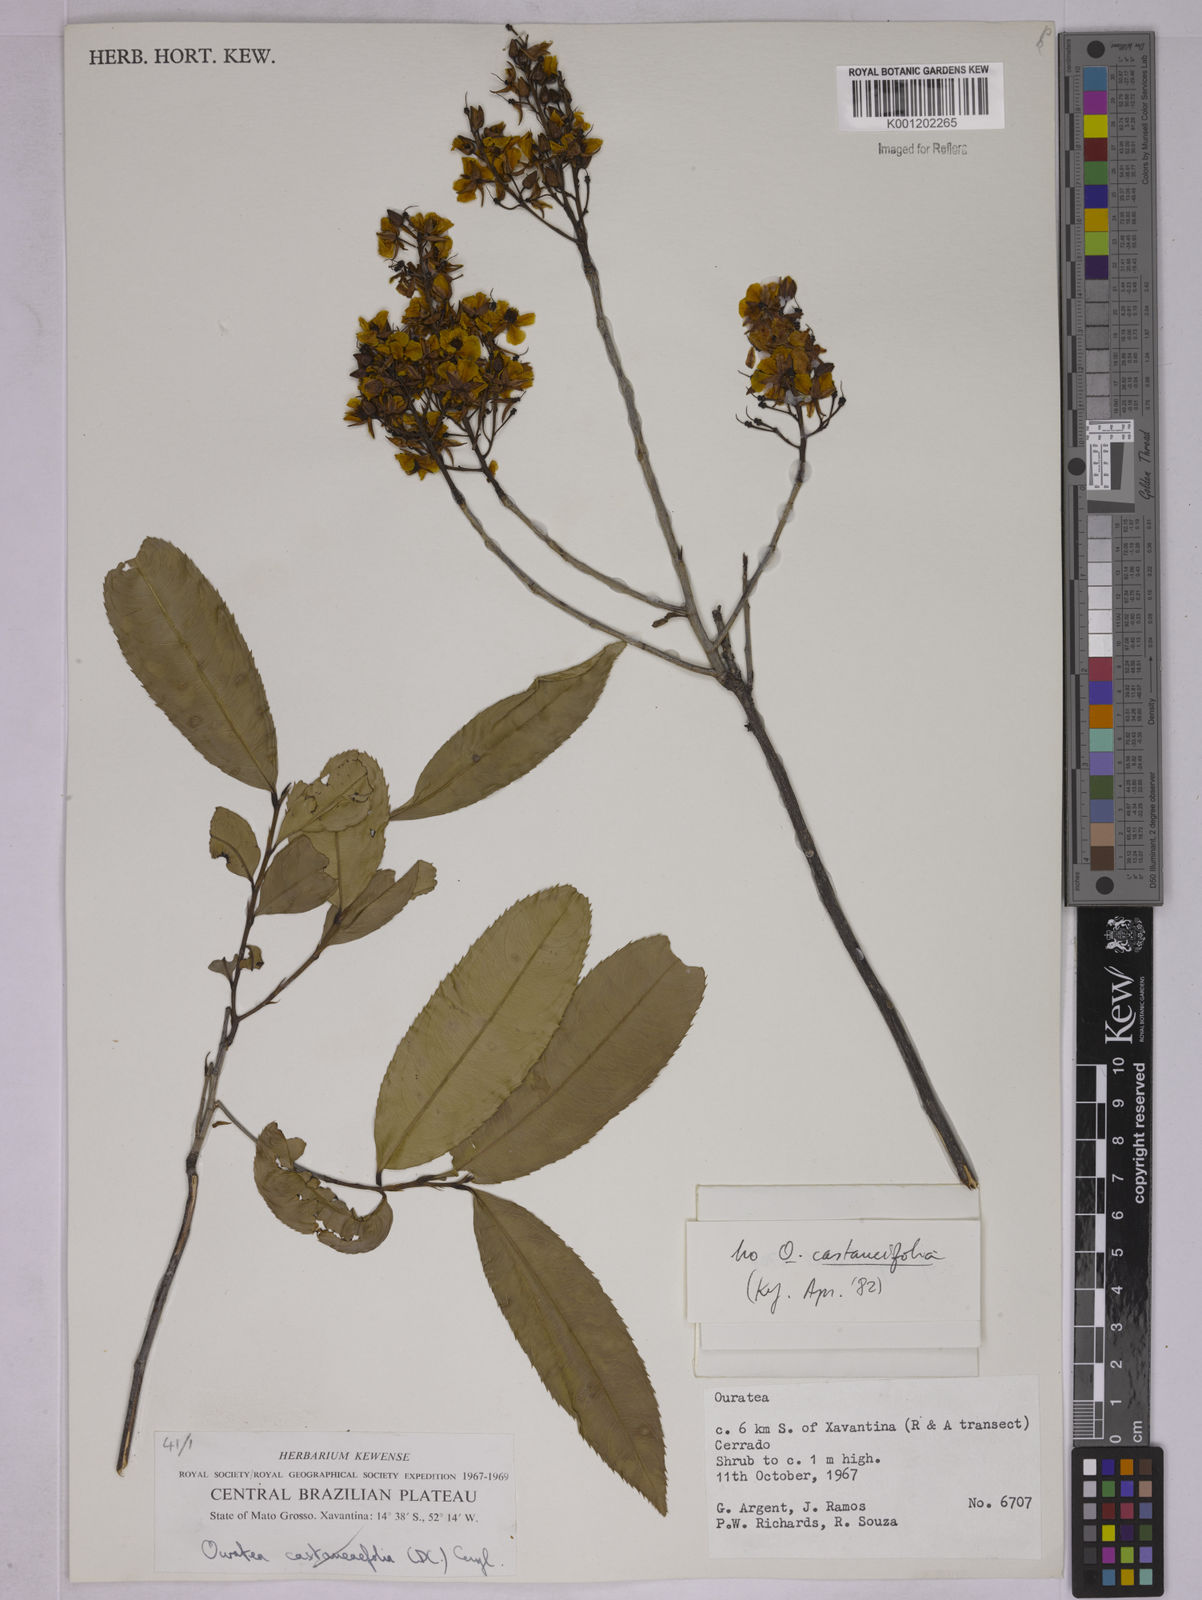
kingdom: Plantae
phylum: Tracheophyta
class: Magnoliopsida
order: Malpighiales
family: Ochnaceae
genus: Ouratea
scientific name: Ouratea
